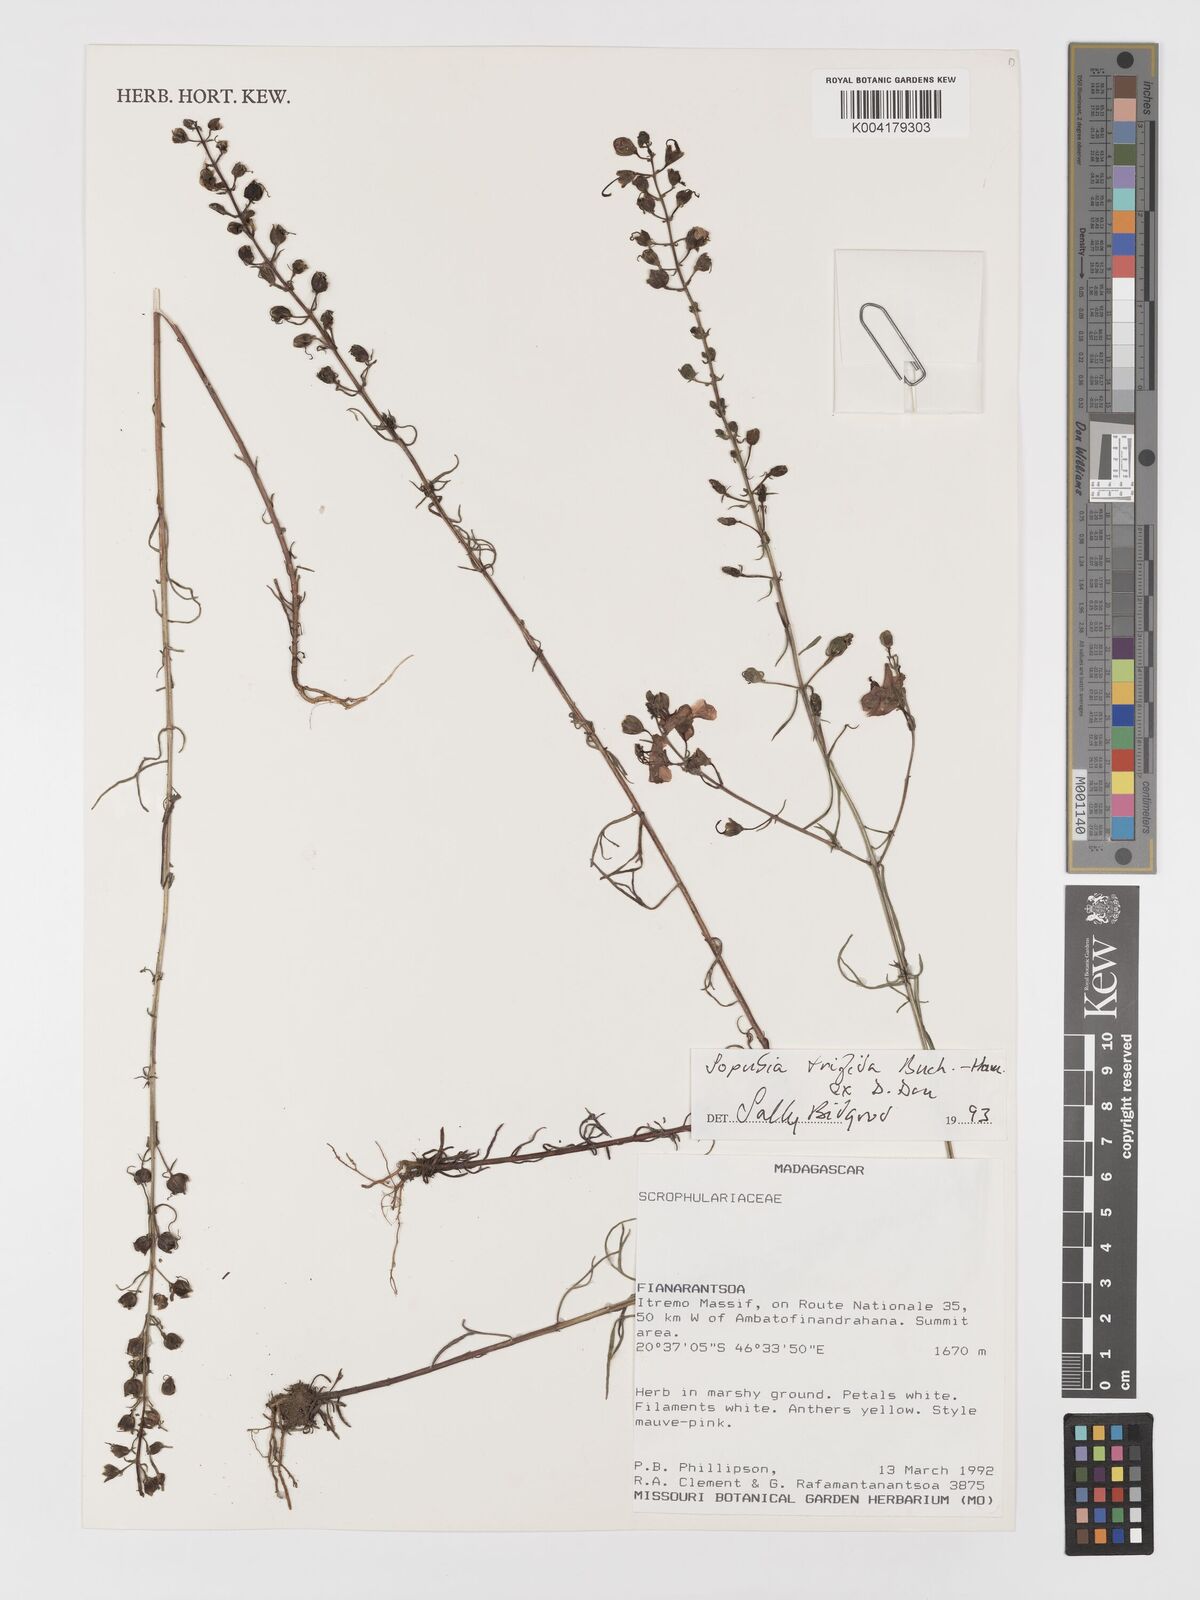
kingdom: Plantae
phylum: Tracheophyta
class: Magnoliopsida
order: Lamiales
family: Orobanchaceae
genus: Sopubia
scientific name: Sopubia trifida
